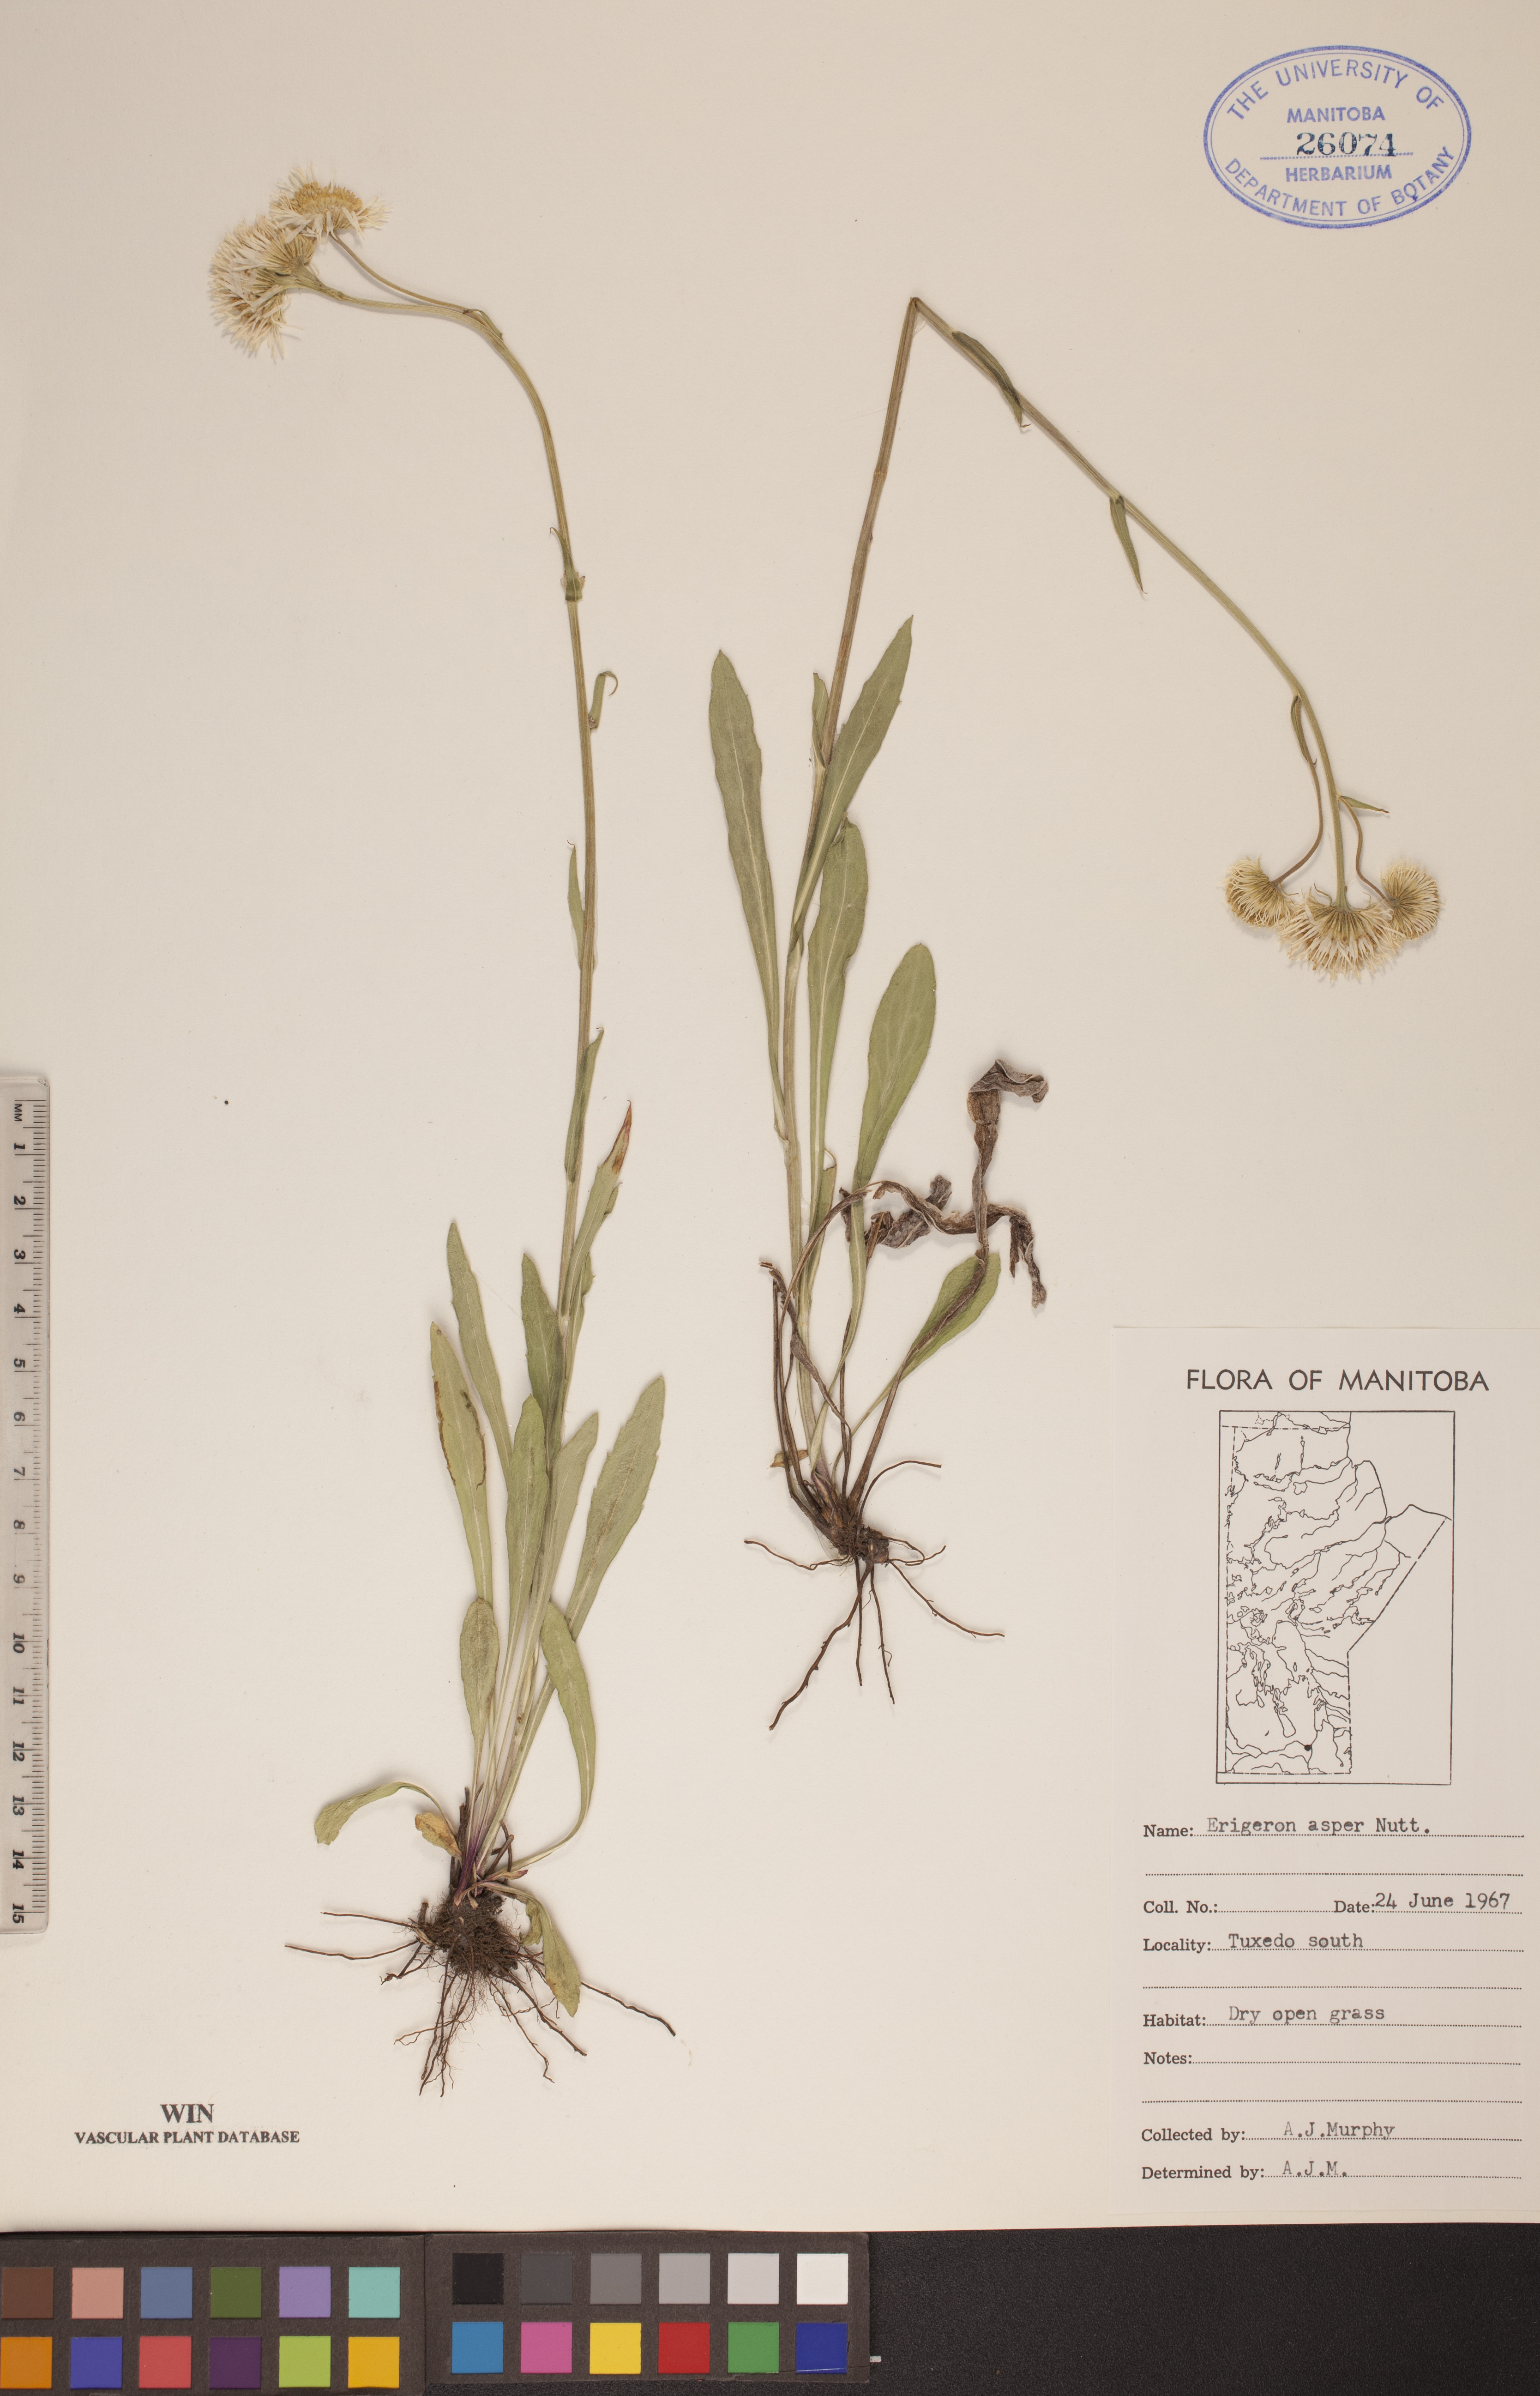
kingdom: Plantae
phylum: Tracheophyta
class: Magnoliopsida
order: Asterales
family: Asteraceae
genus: Erigeron
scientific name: Erigeron glabellus
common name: Smooth fleabane
